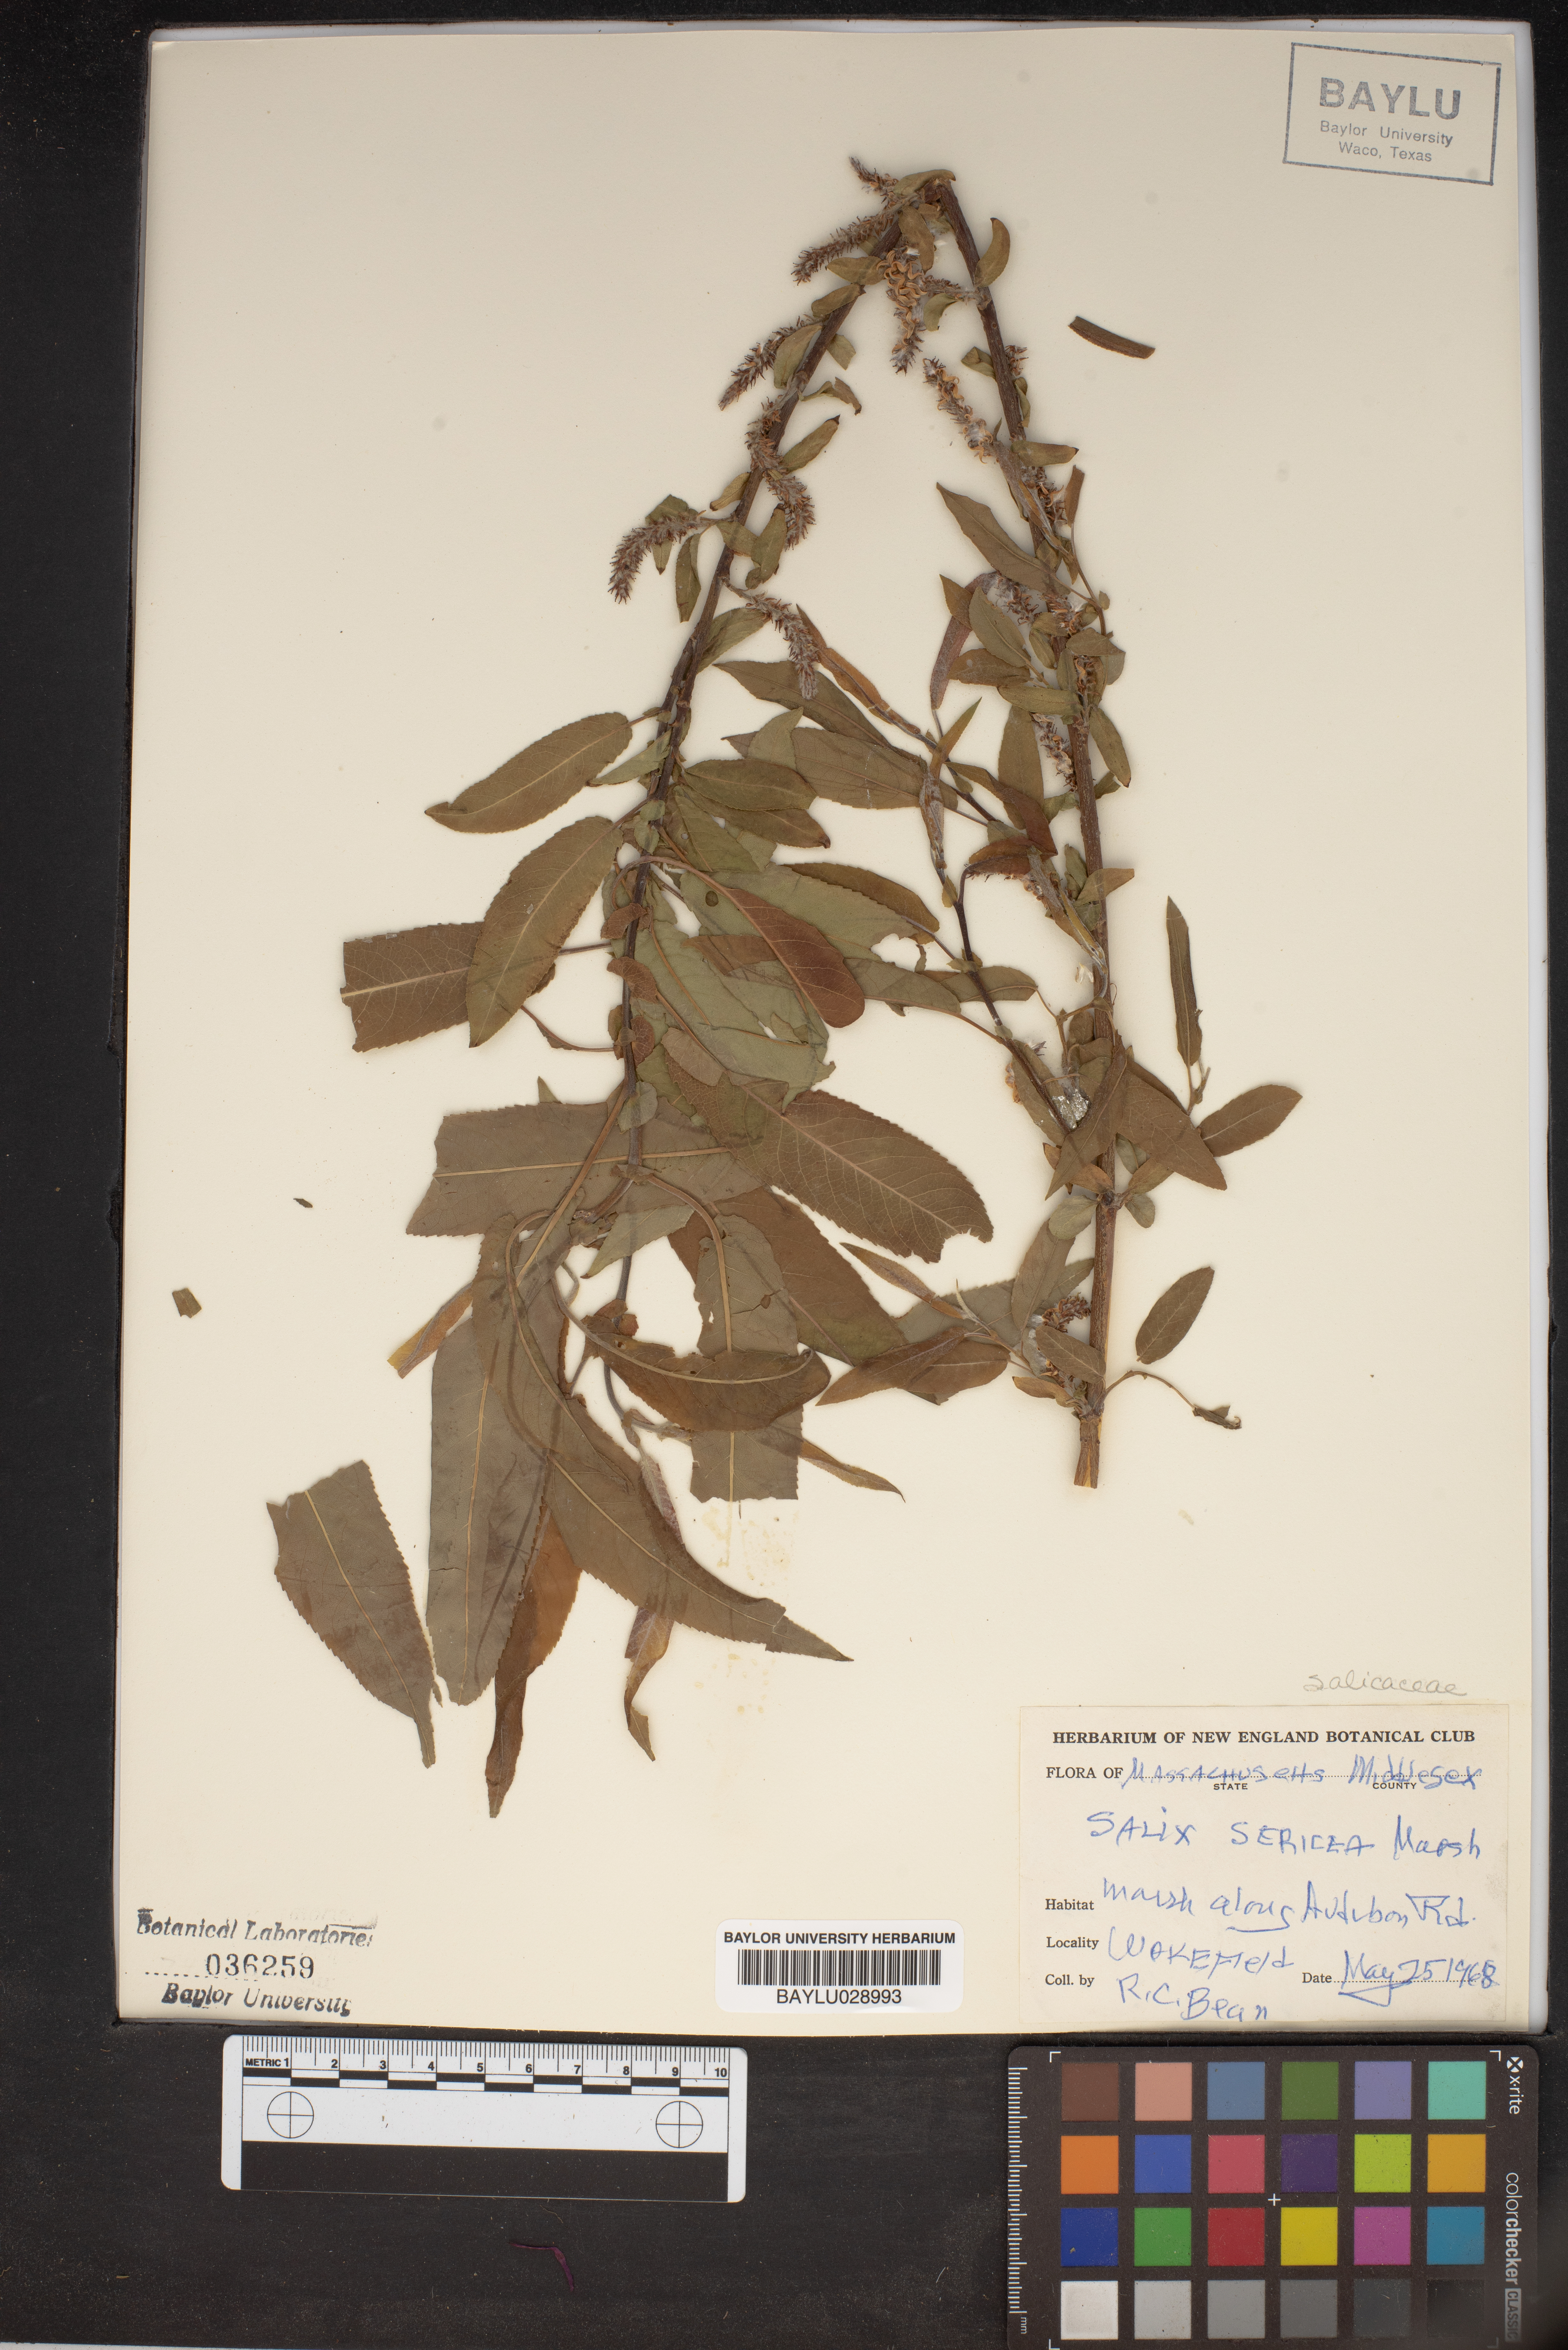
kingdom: Plantae
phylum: Tracheophyta
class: Magnoliopsida
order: Malpighiales
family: Salicaceae
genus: Salix
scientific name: Salix sericea
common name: Silky willow
